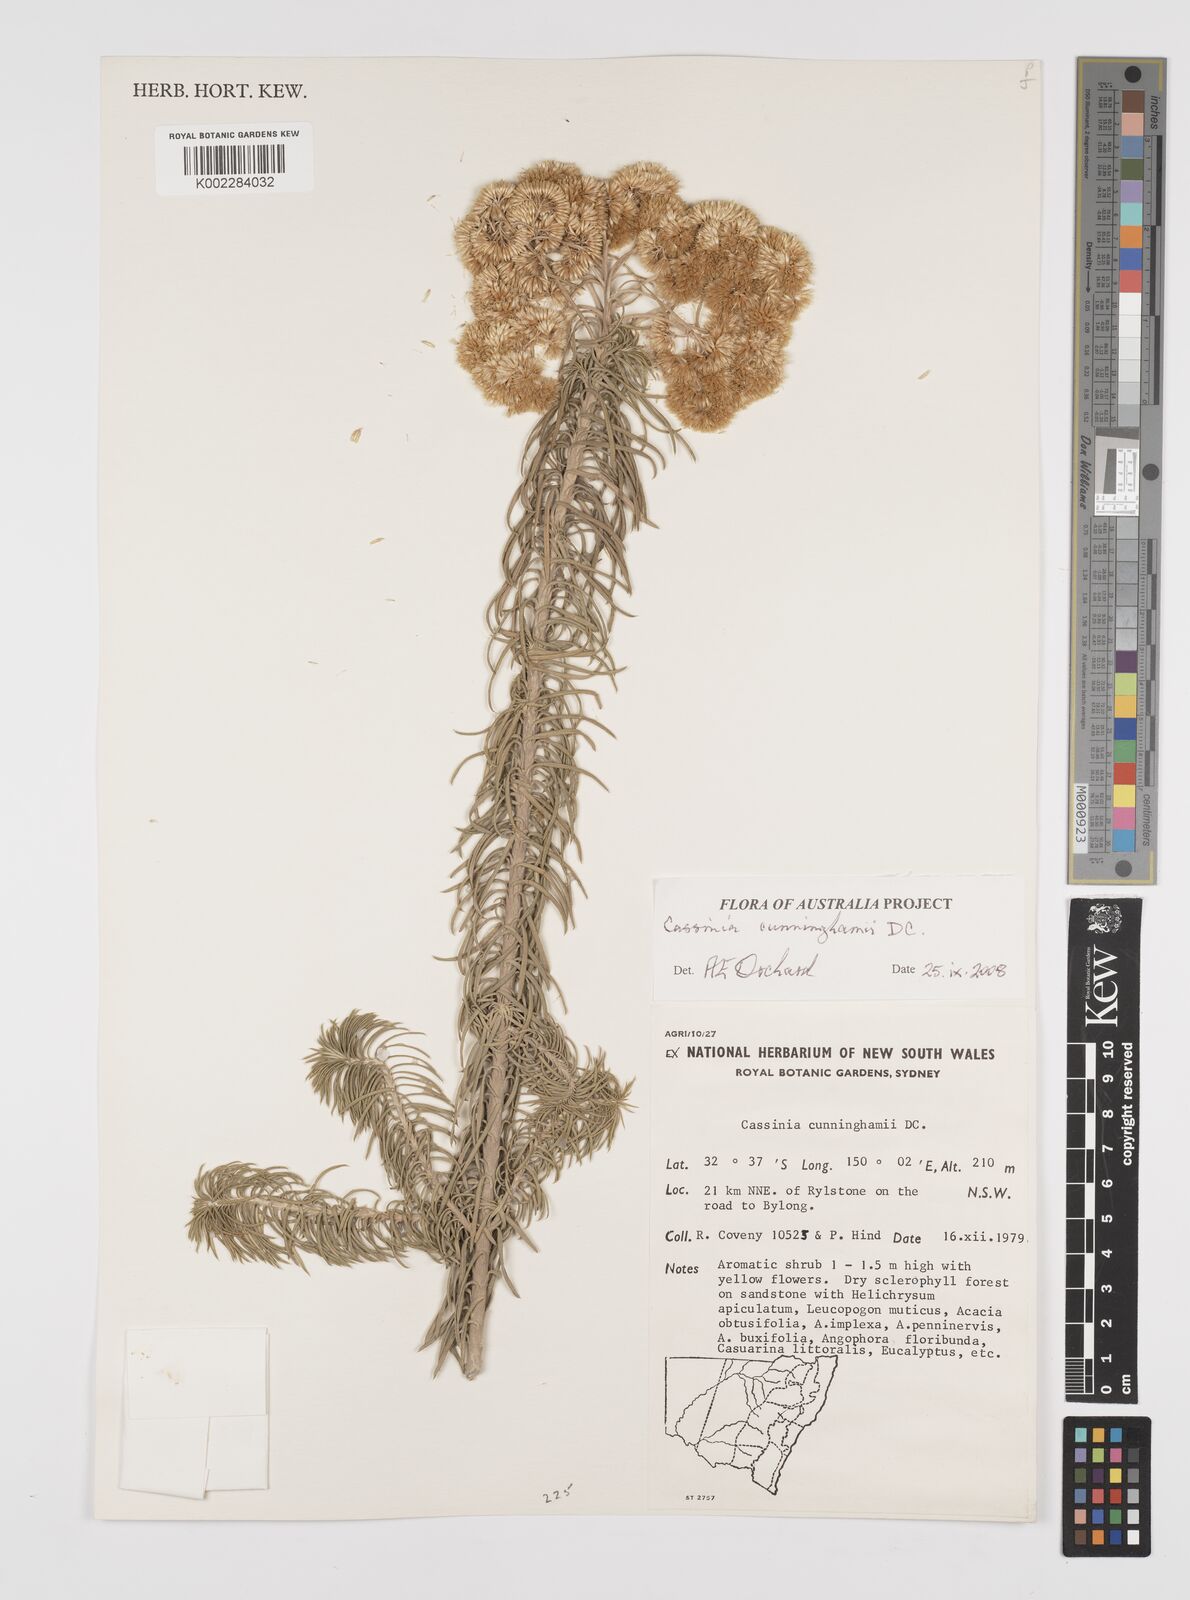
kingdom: Plantae
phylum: Tracheophyta
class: Magnoliopsida
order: Asterales
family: Asteraceae
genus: Cassinia
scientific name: Cassinia cunninghamii
